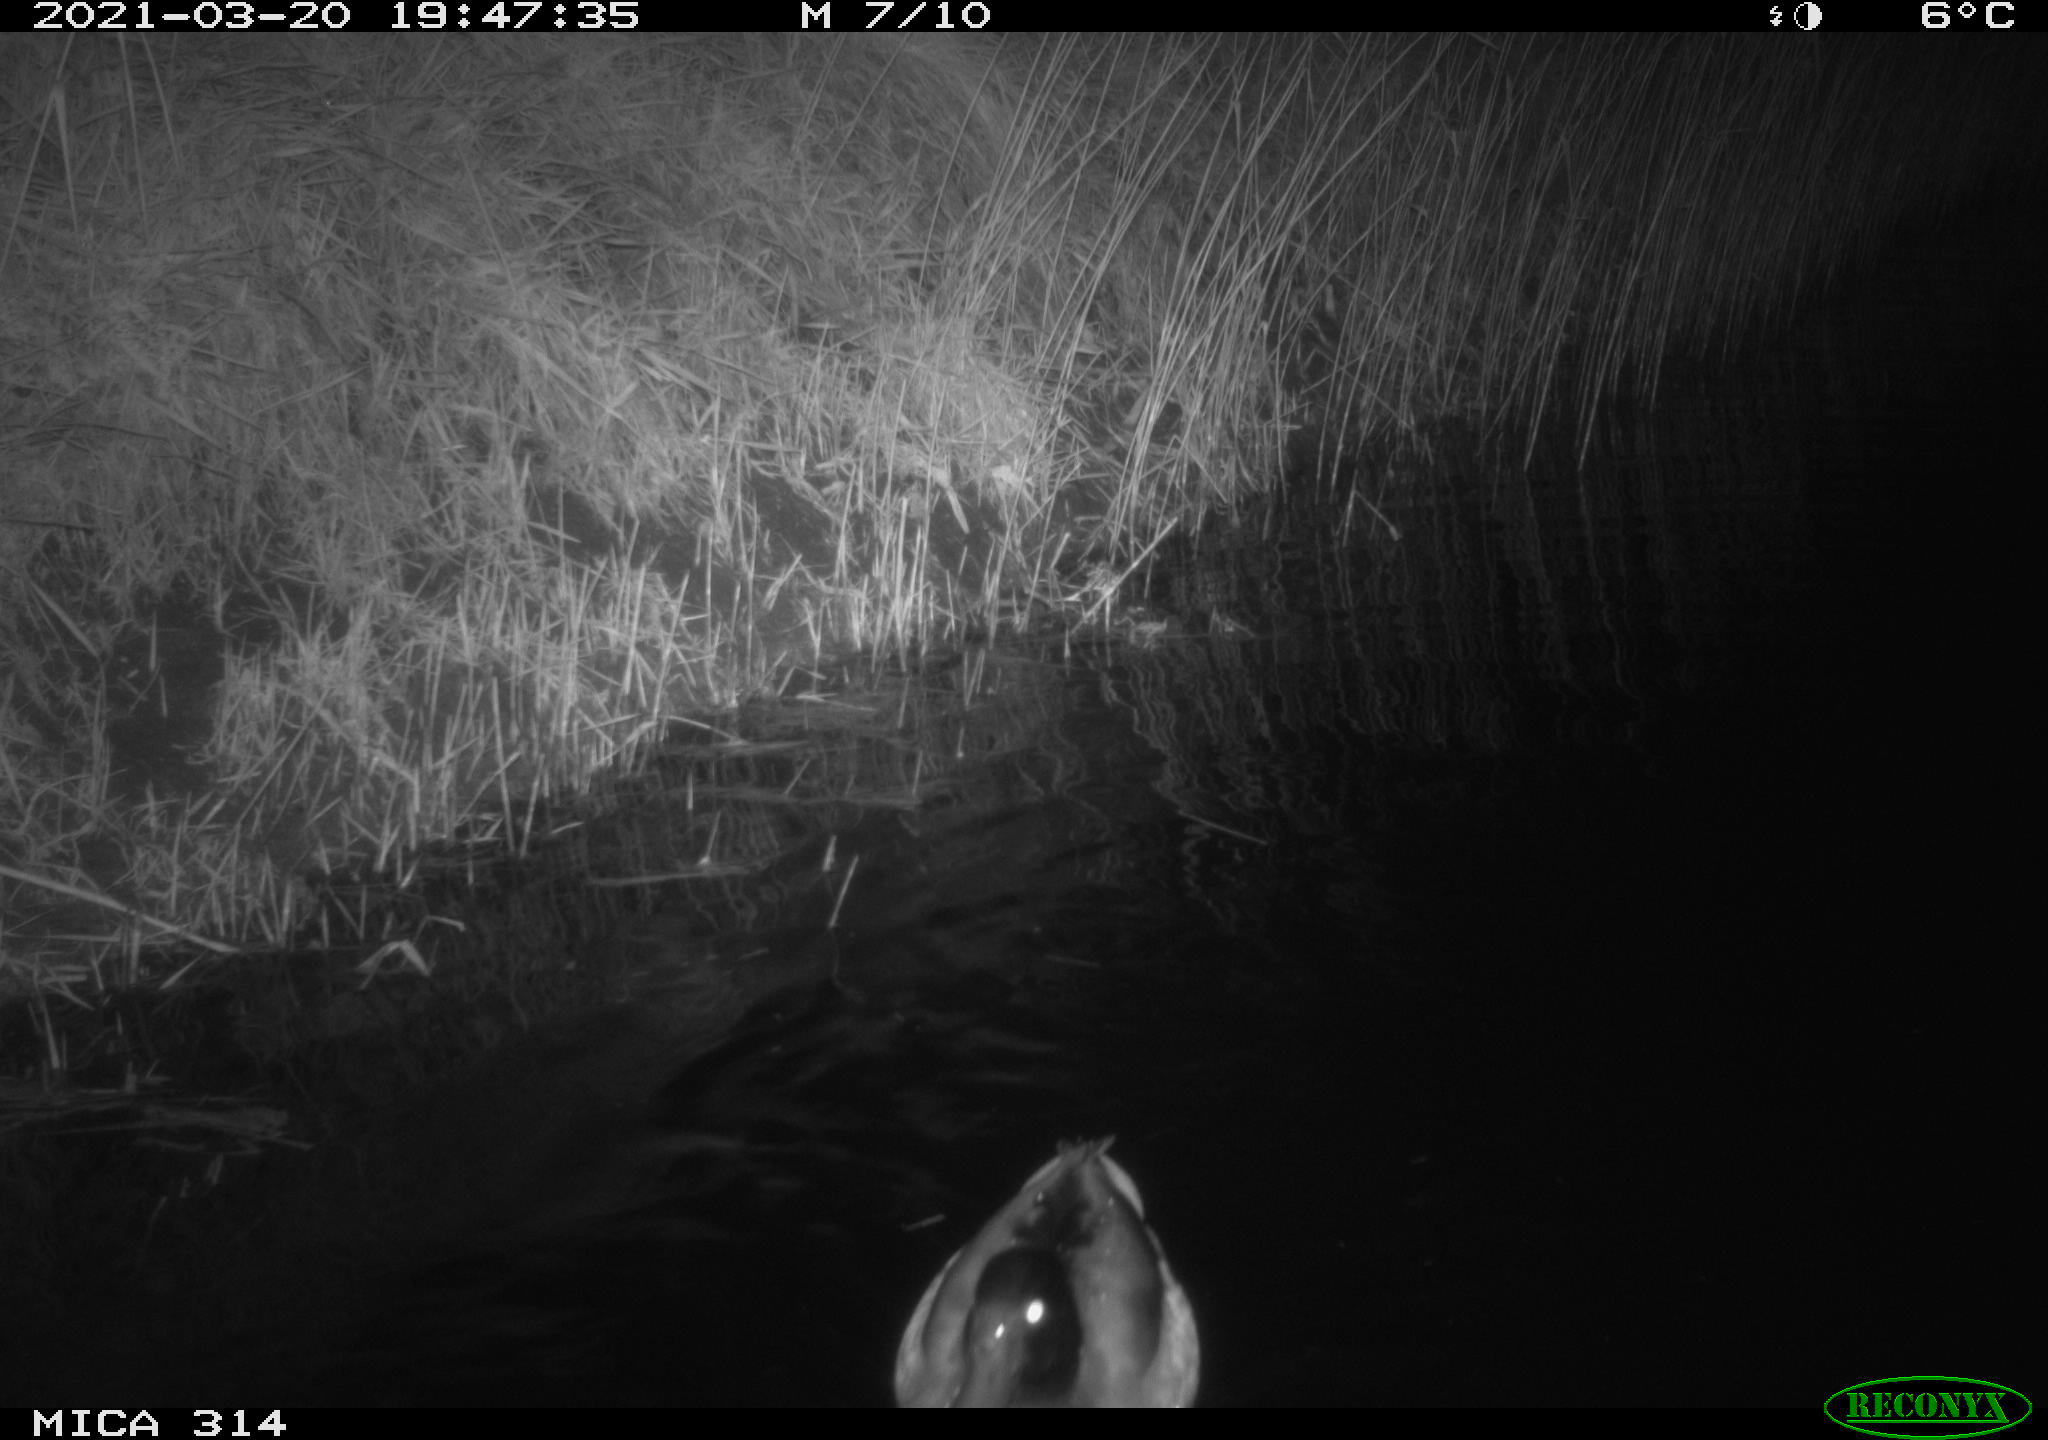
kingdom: Animalia
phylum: Chordata
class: Aves
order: Anseriformes
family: Anatidae
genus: Anas
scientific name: Anas platyrhynchos
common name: Mallard
